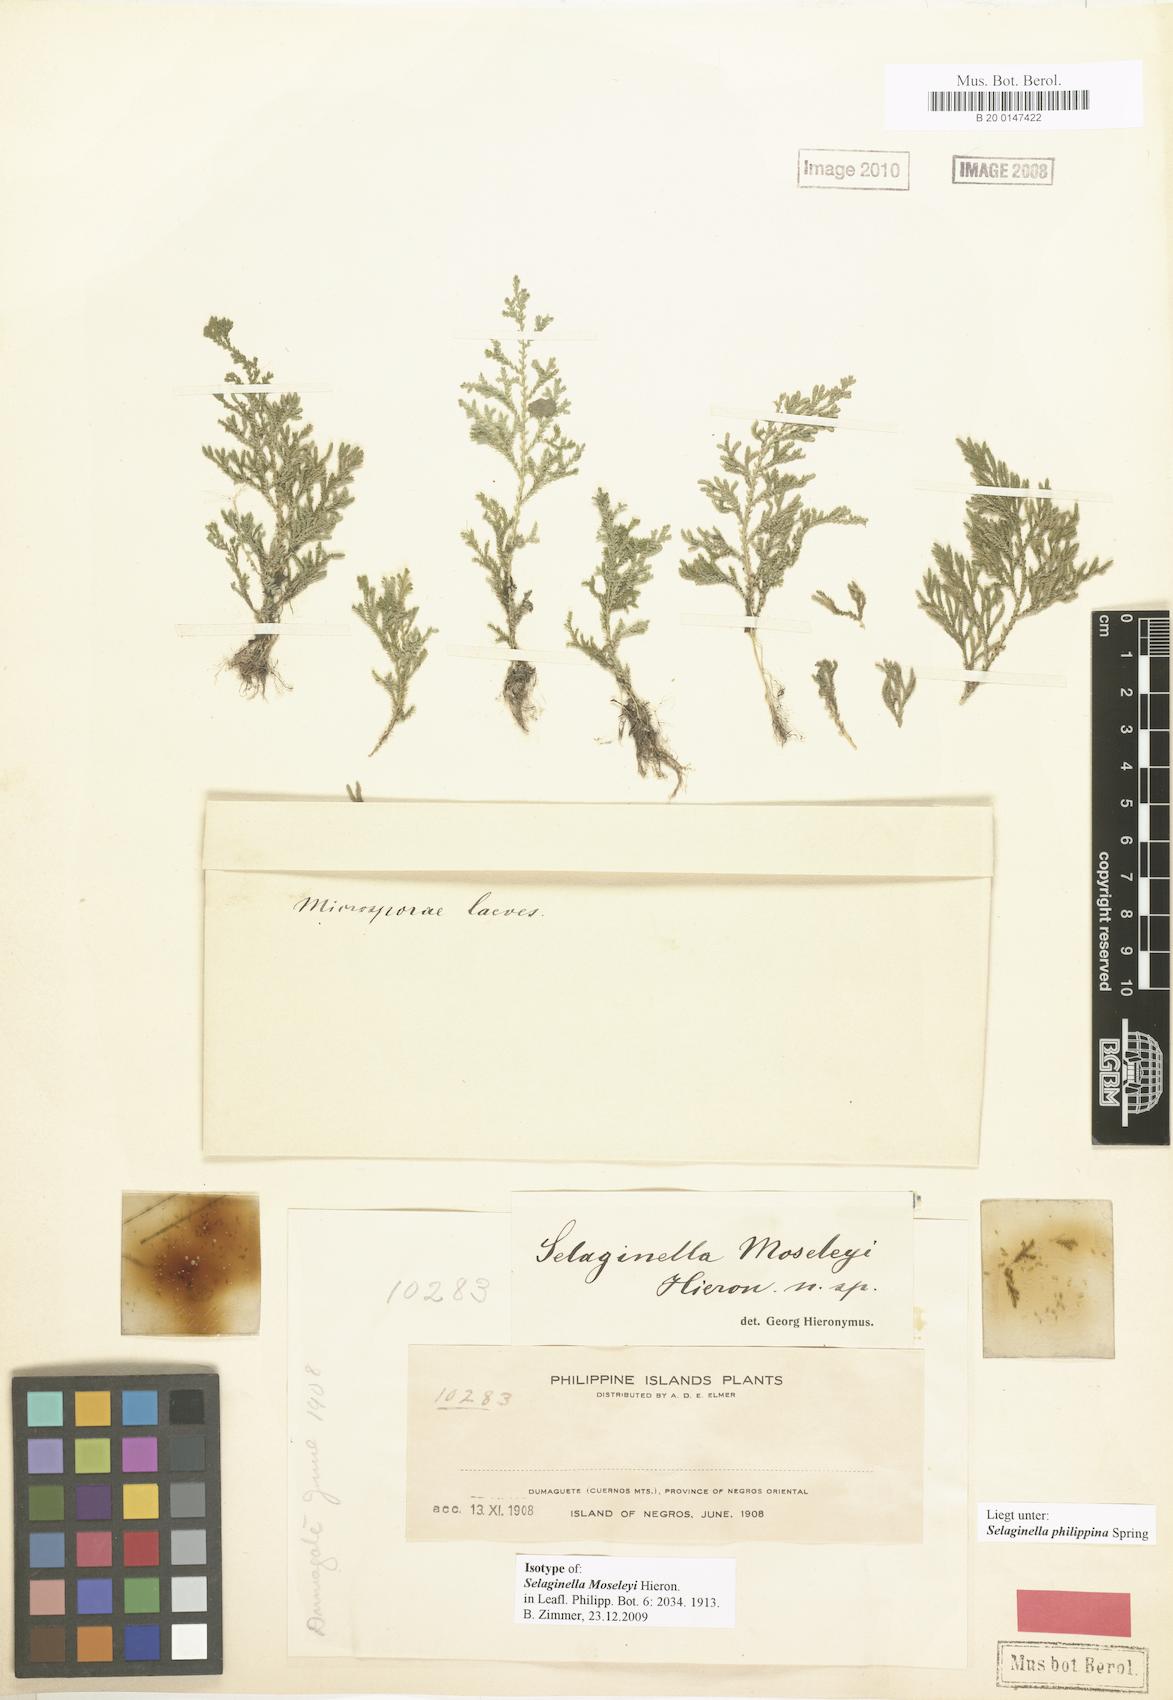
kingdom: Plantae
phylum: Tracheophyta
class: Lycopodiopsida
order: Selaginellales
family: Selaginellaceae
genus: Selaginella
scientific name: Selaginella philippsiana
